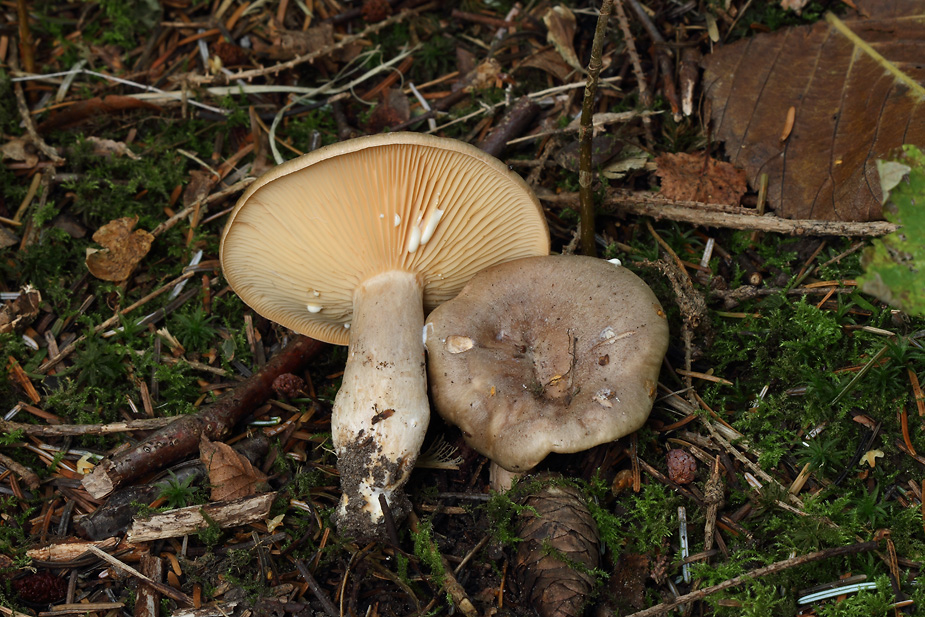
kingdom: Fungi
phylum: Basidiomycota
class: Agaricomycetes
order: Russulales
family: Russulaceae
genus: Lactarius
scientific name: Lactarius pyrogalus
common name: hassel-mælkehat
